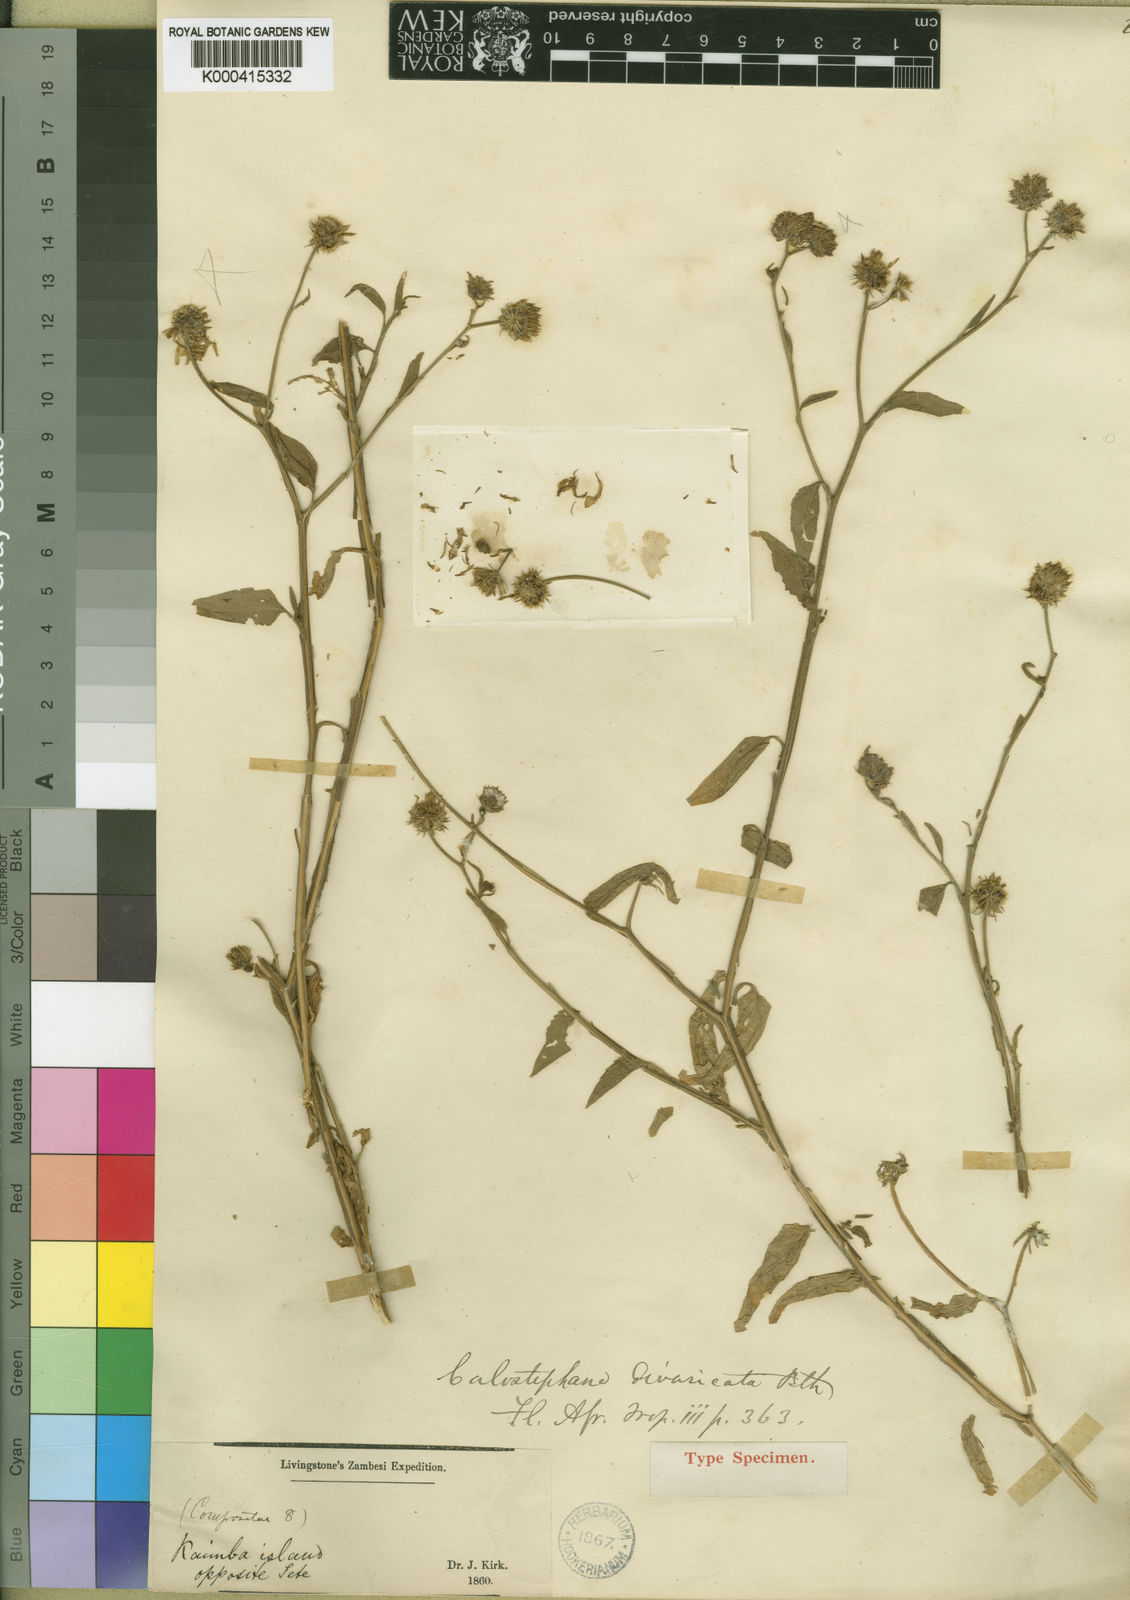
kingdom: Plantae
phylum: Tracheophyta
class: Magnoliopsida
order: Asterales
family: Asteraceae
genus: Calostephane
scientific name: Calostephane divaricata
